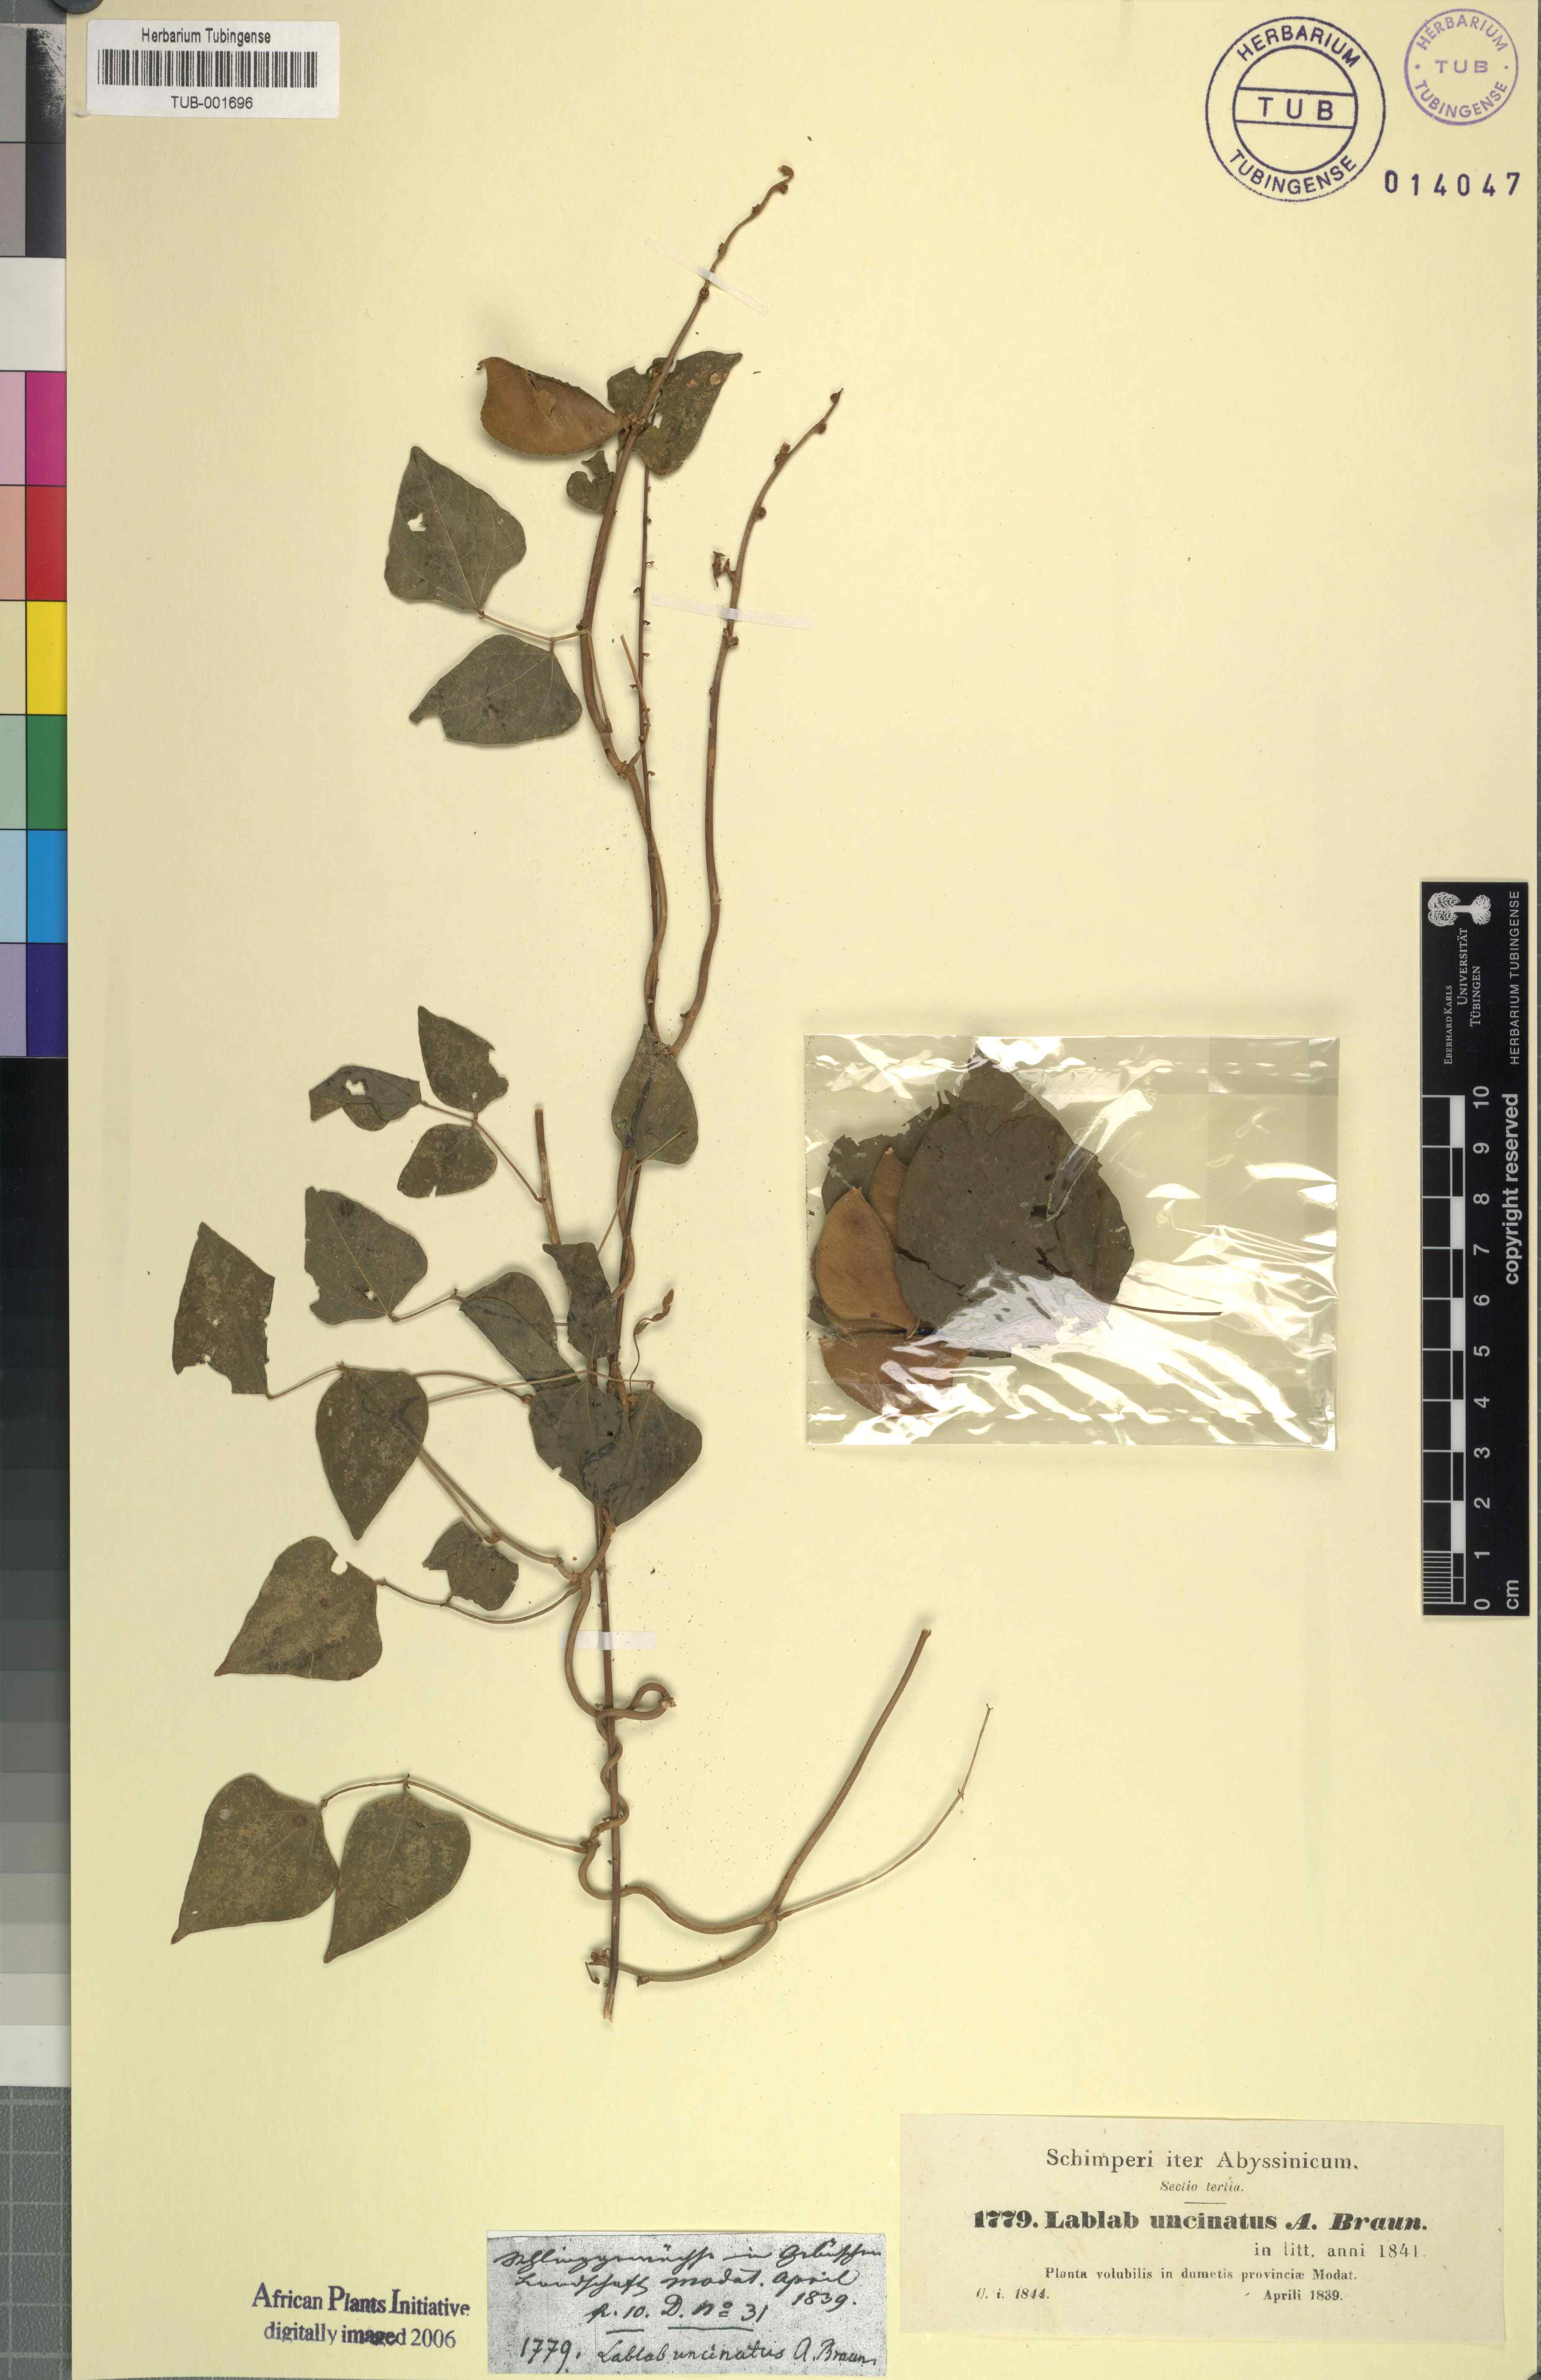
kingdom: Plantae
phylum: Tracheophyta
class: Magnoliopsida
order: Fabales
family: Fabaceae
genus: Lablab
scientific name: Lablab purpureus
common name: Lablab-bean
